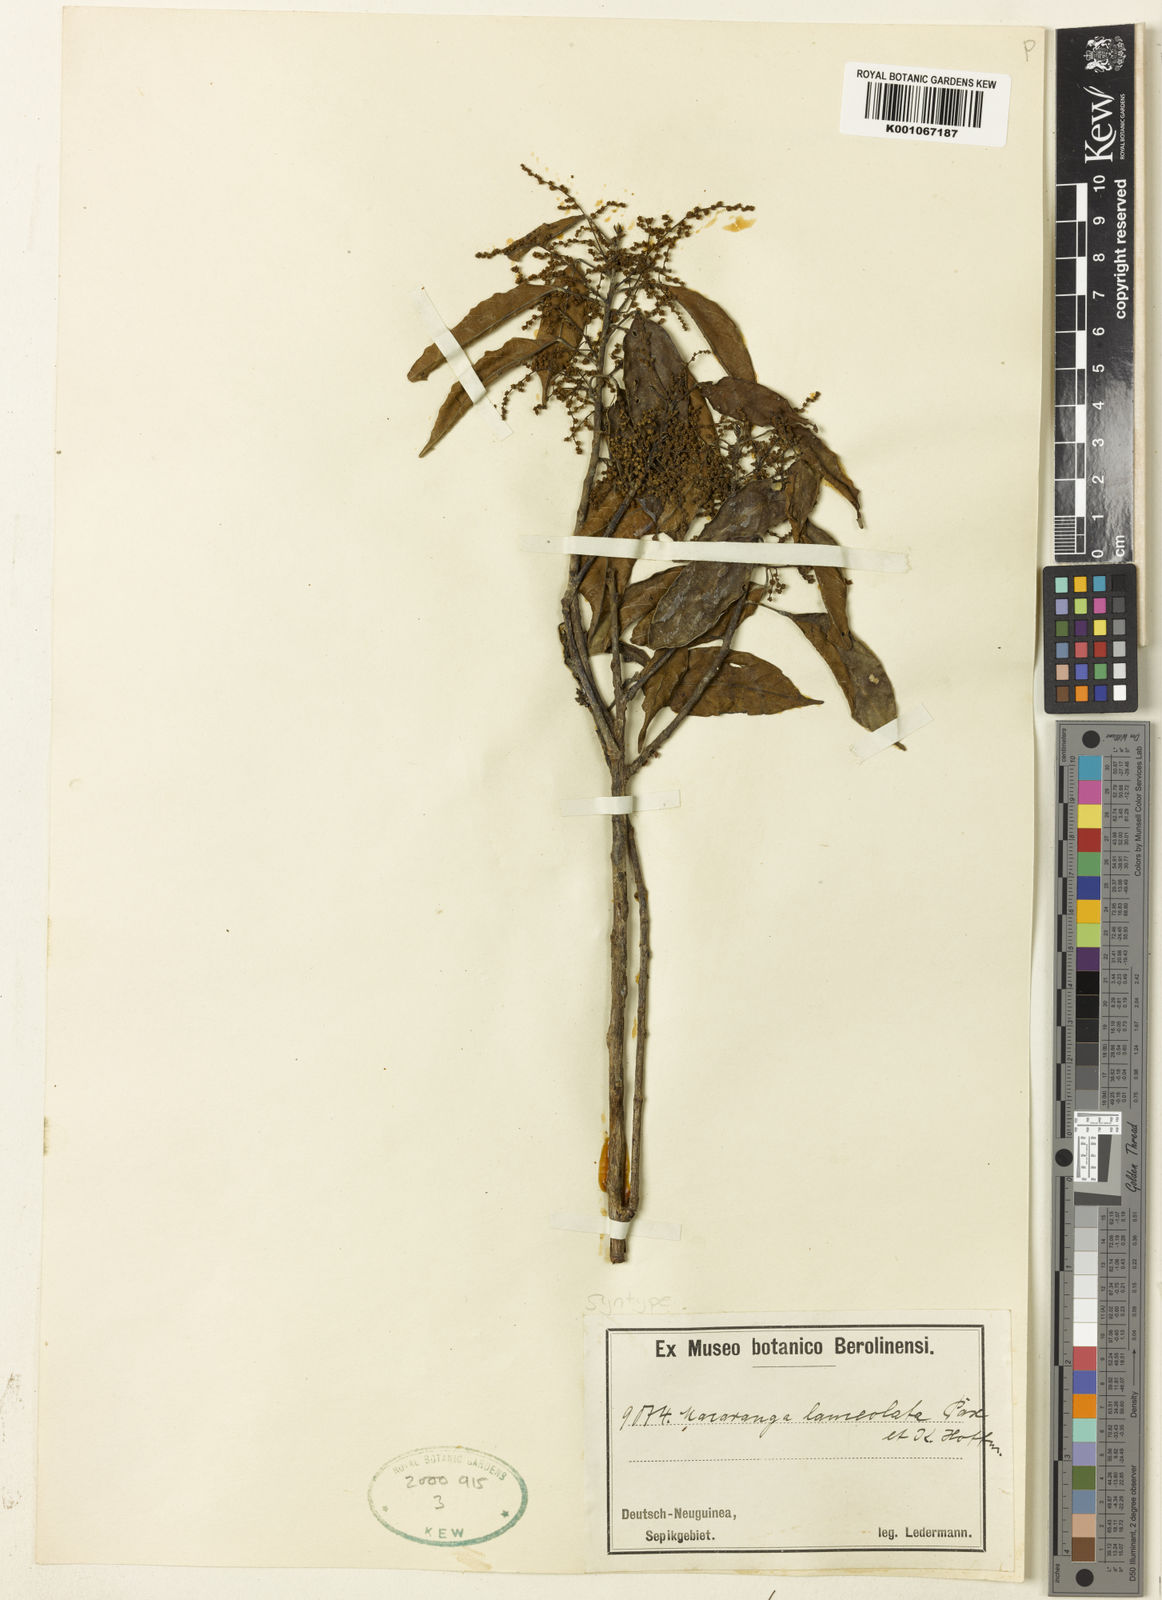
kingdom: Plantae
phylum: Tracheophyta
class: Magnoliopsida
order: Malpighiales
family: Euphorbiaceae
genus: Macaranga
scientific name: Macaranga lanceolata
